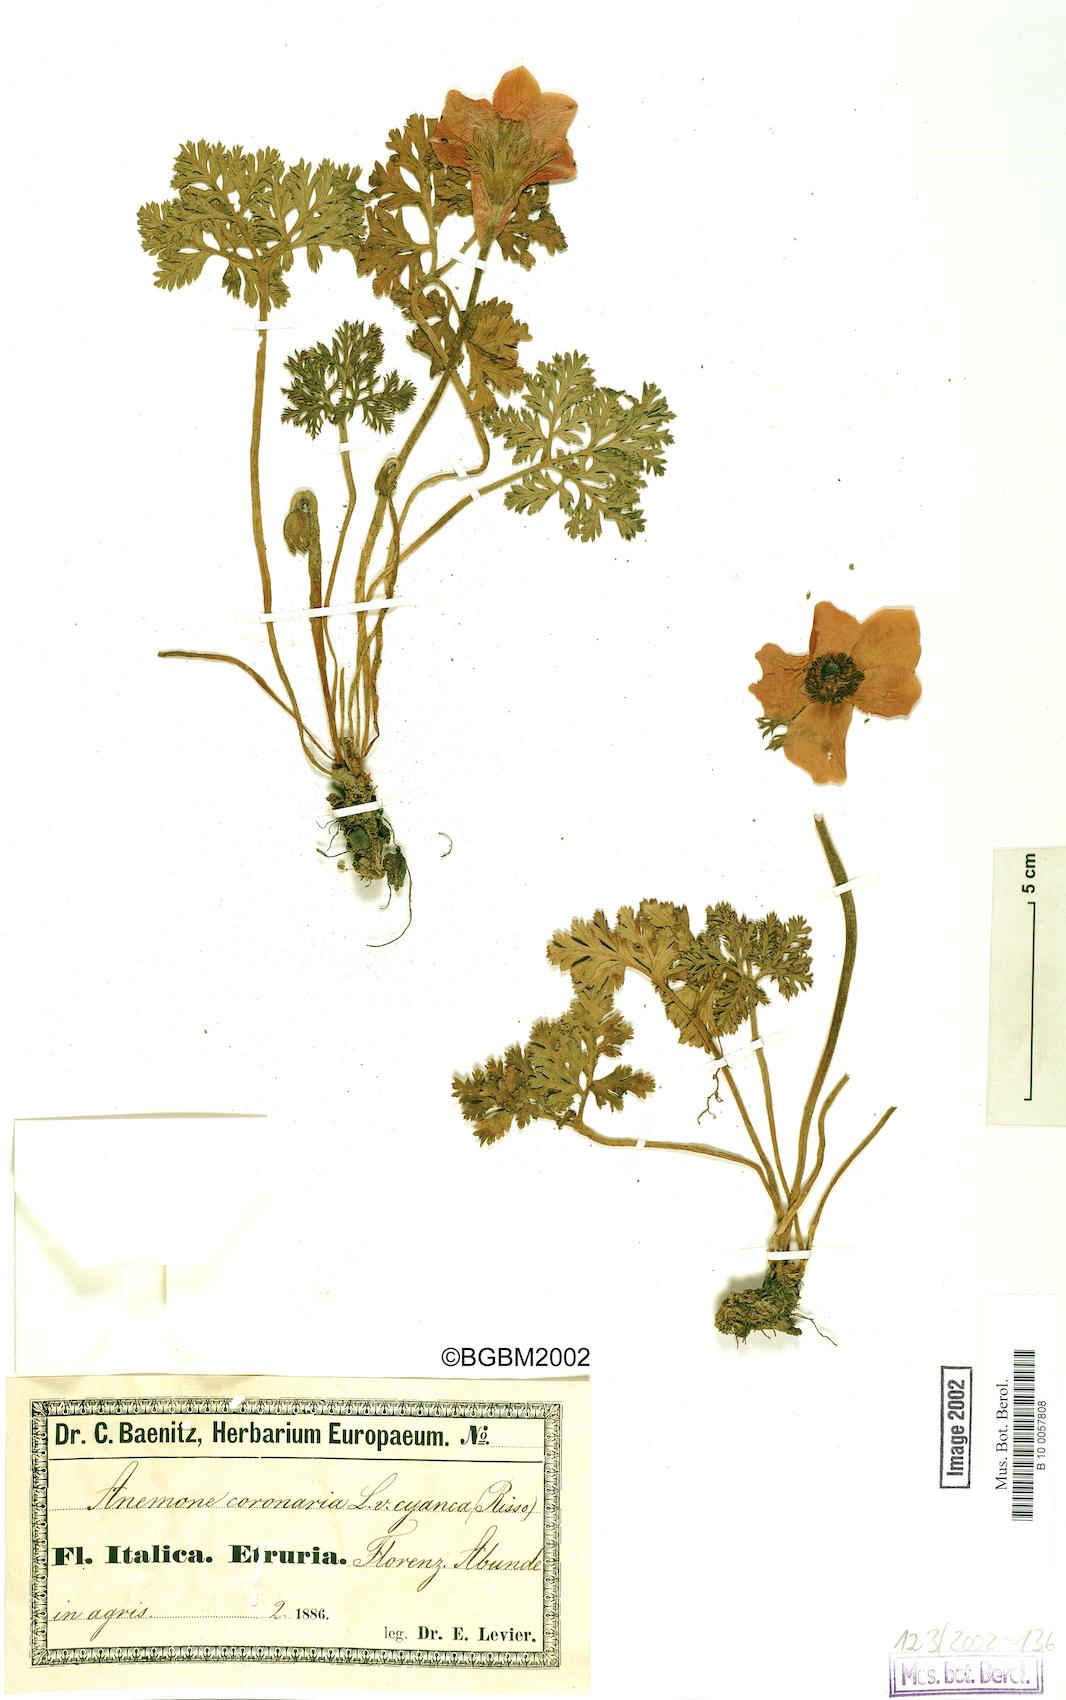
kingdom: Plantae
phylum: Tracheophyta
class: Magnoliopsida
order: Ranunculales
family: Ranunculaceae
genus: Anemone
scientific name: Anemone coronaria
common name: Poppy anemone
